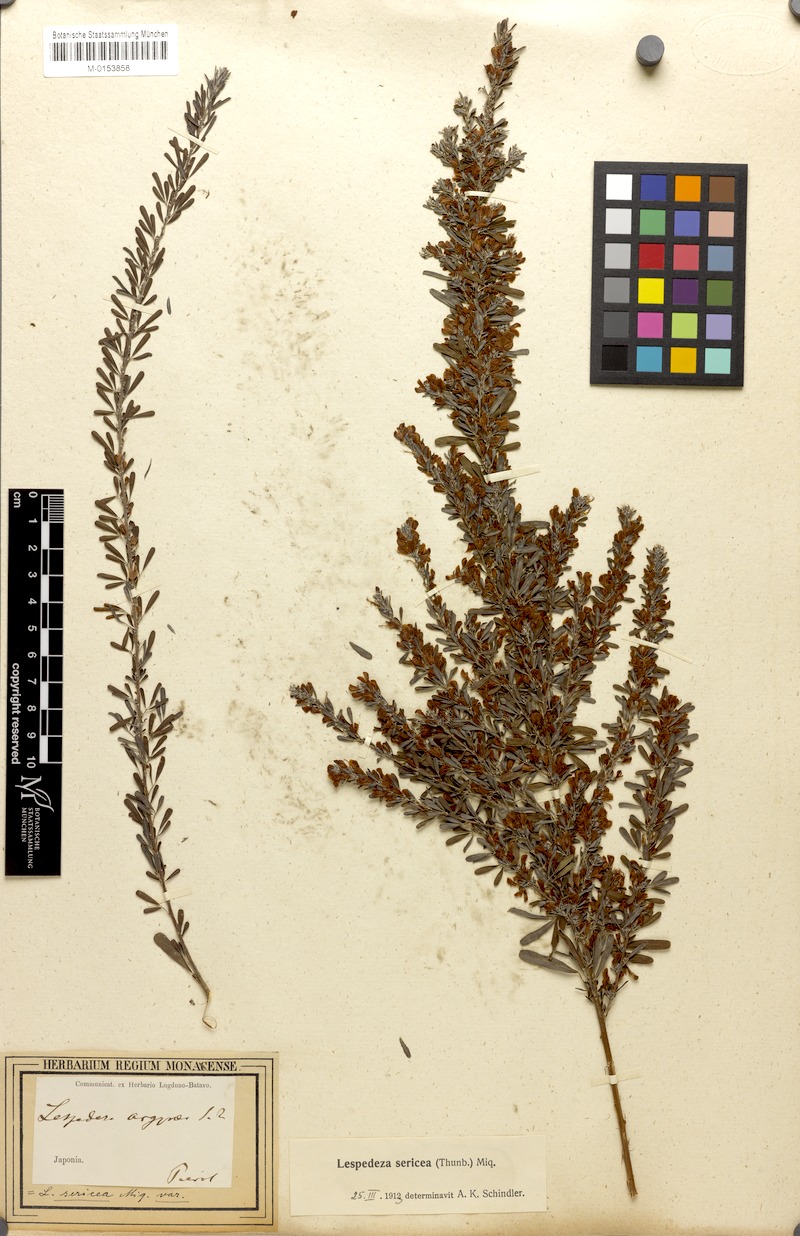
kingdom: Plantae
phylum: Tracheophyta
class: Magnoliopsida
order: Fabales
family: Fabaceae
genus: Lespedeza
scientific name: Lespedeza cuneata
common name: Chinese bush-clover
